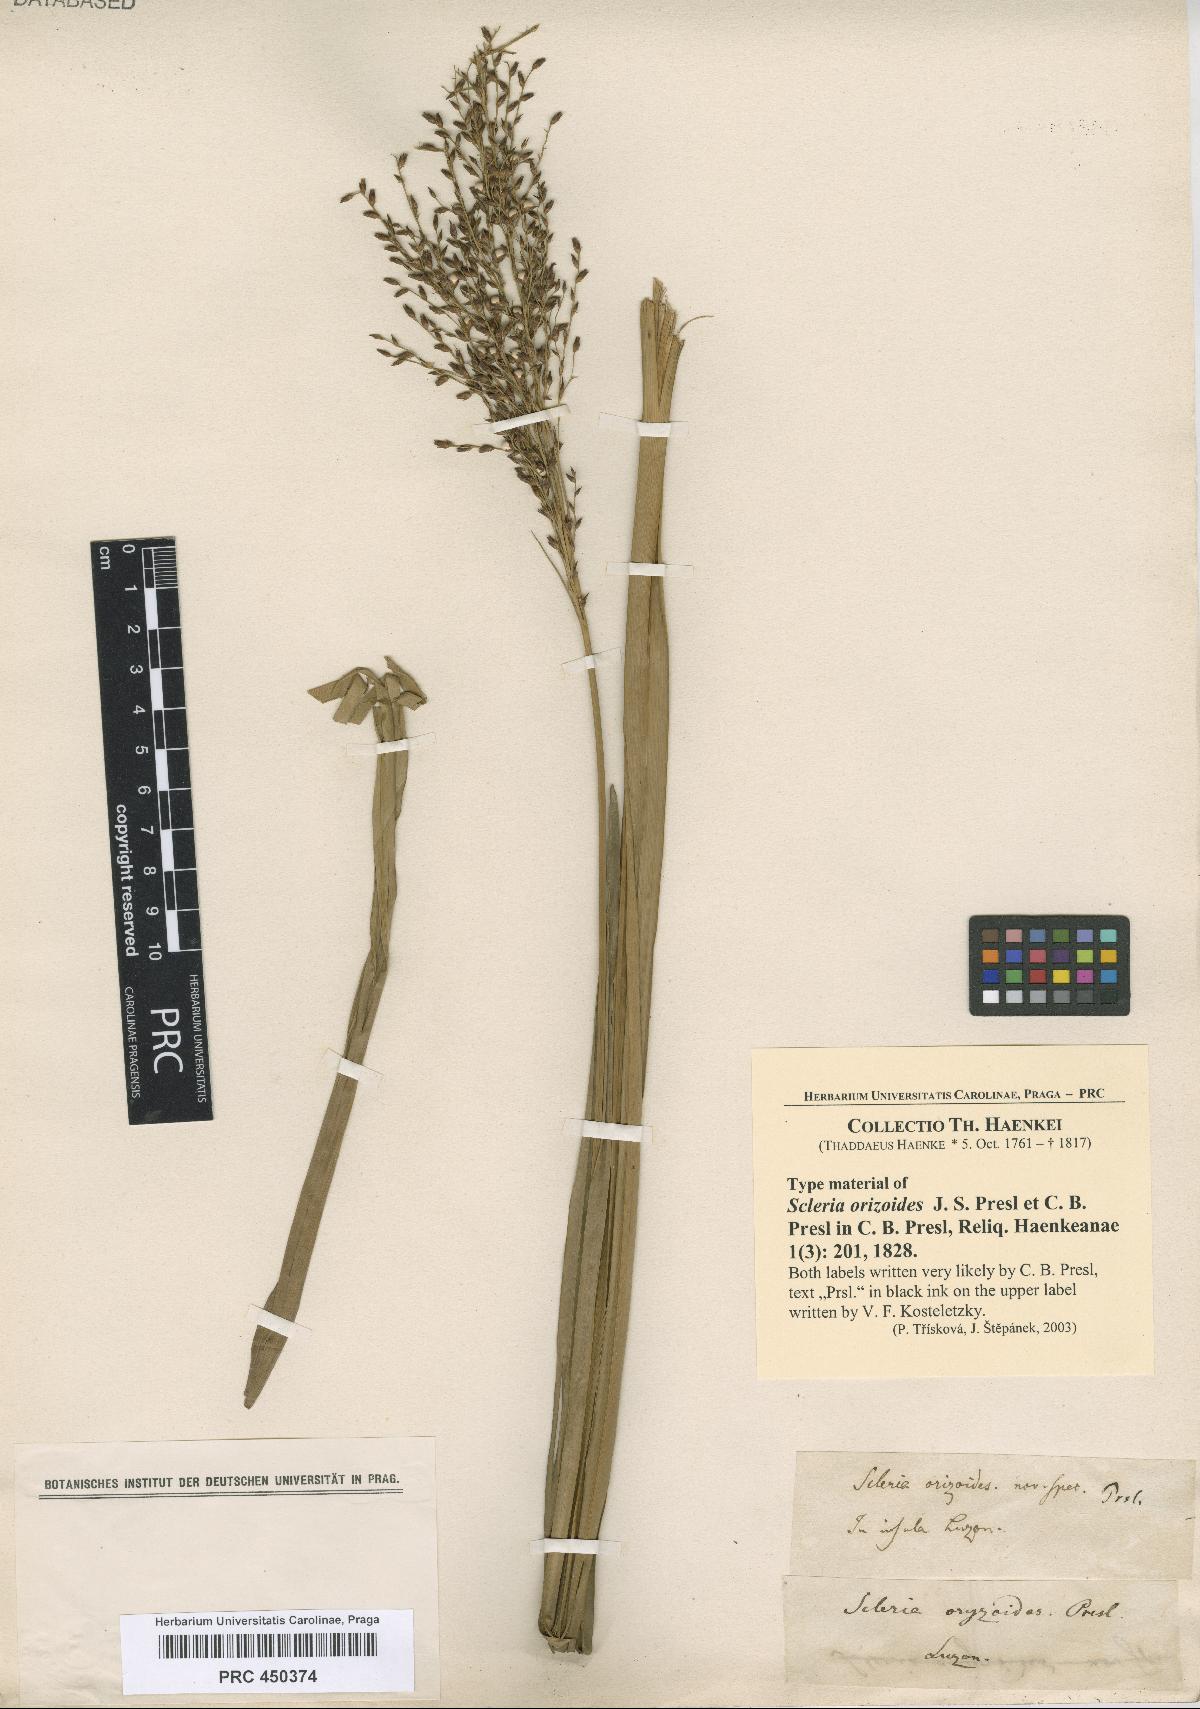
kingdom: Plantae
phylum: Tracheophyta
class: Liliopsida
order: Poales
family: Cyperaceae
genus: Scleria
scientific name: Scleria poiformis
